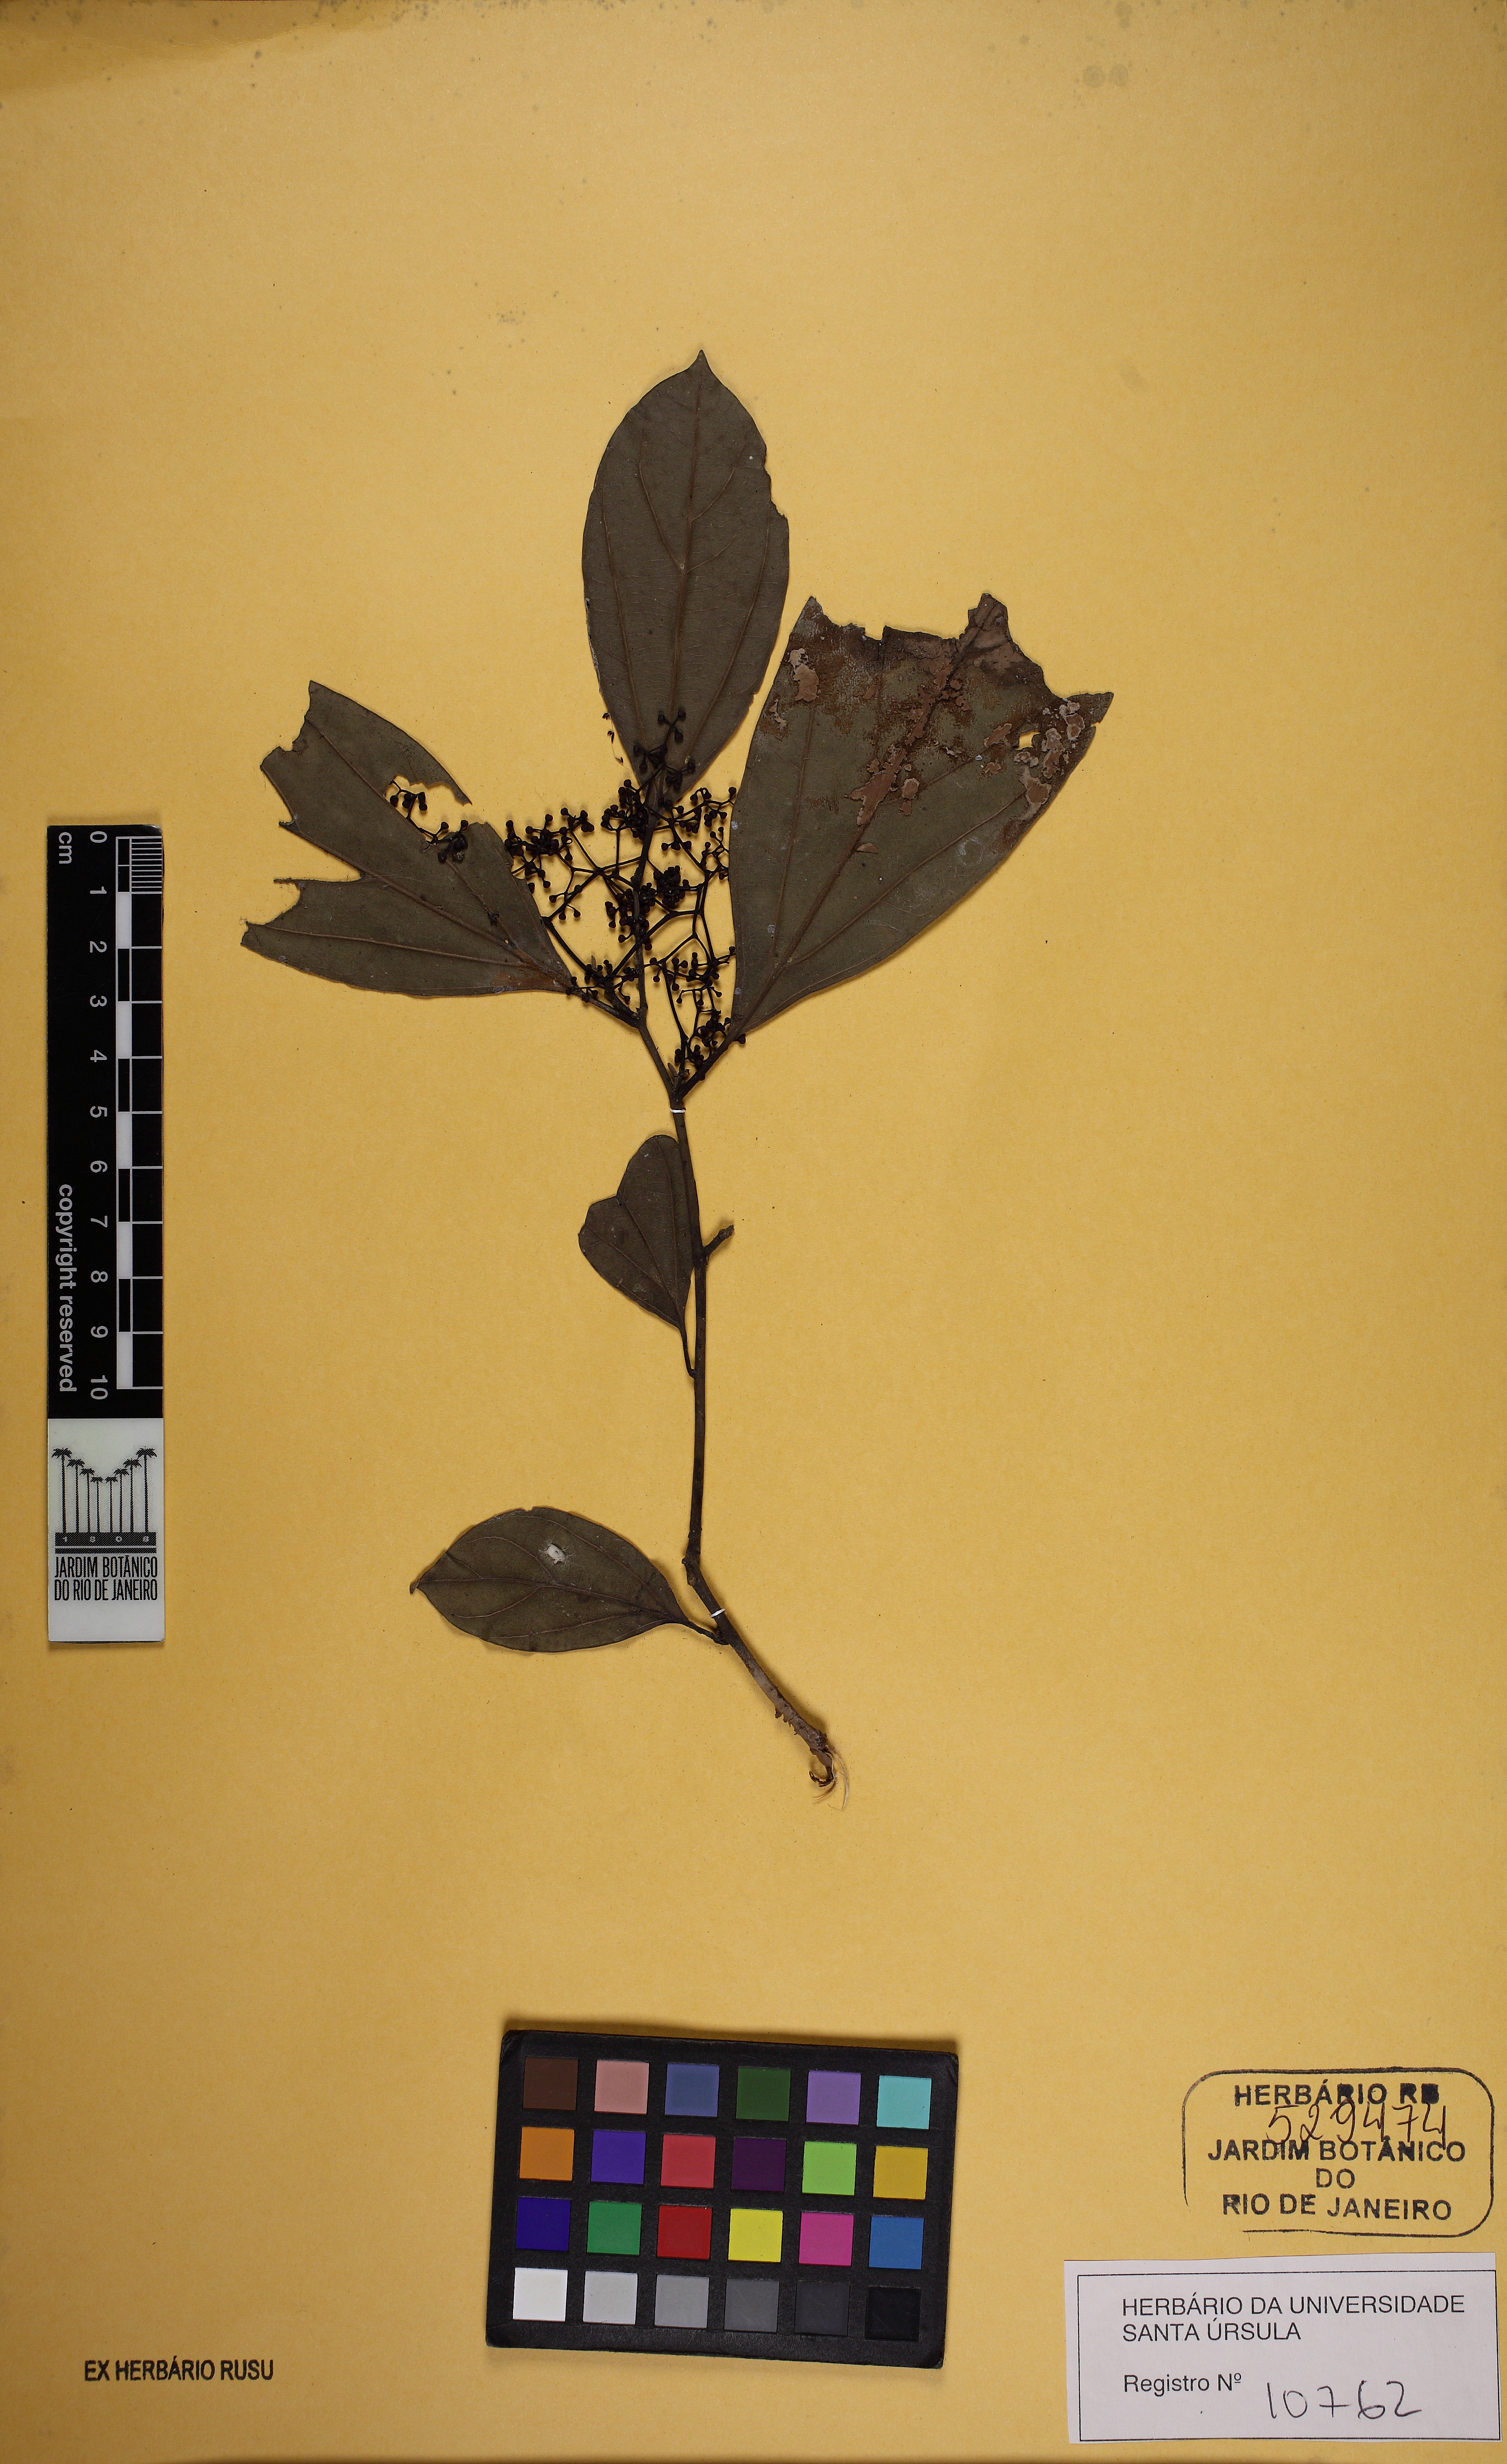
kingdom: Plantae
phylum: Tracheophyta
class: Magnoliopsida
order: Laurales
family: Lauraceae
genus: Ocotea
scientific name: Ocotea divaricata
